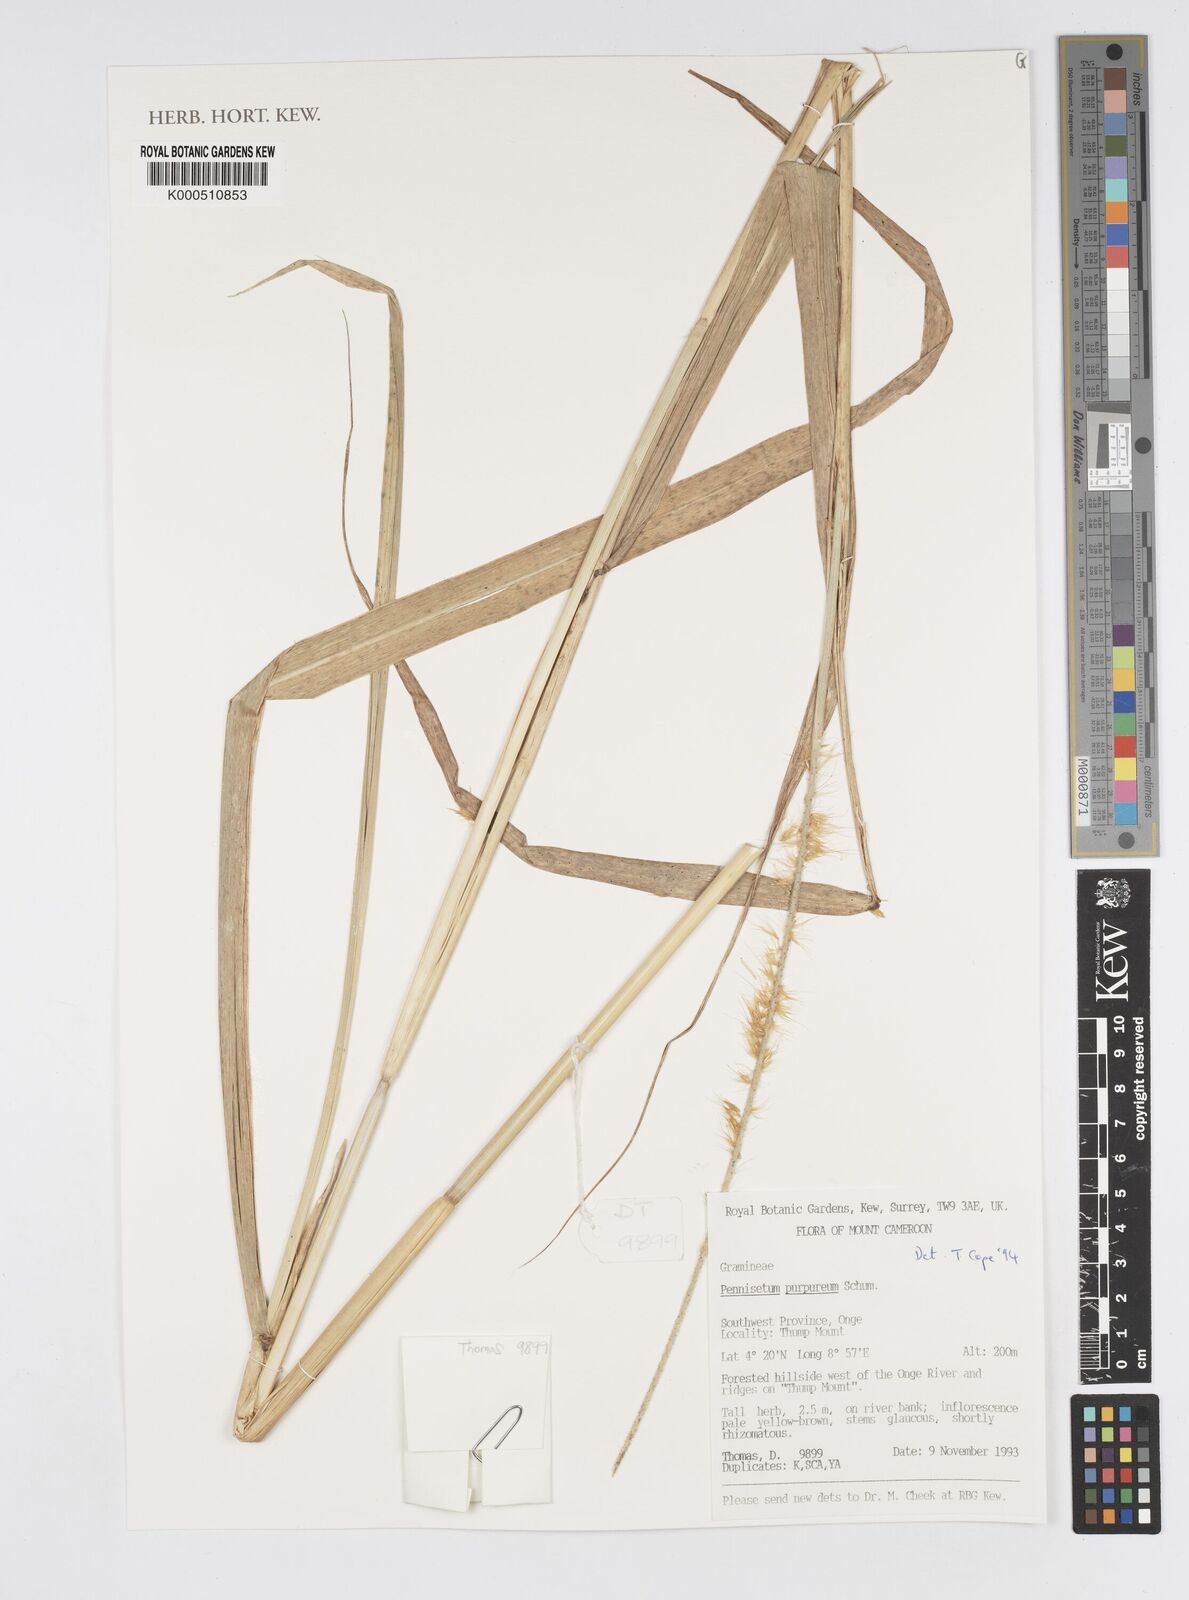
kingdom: Plantae
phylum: Tracheophyta
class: Liliopsida
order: Poales
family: Poaceae
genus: Cenchrus
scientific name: Cenchrus purpureus
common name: Elephant grass
